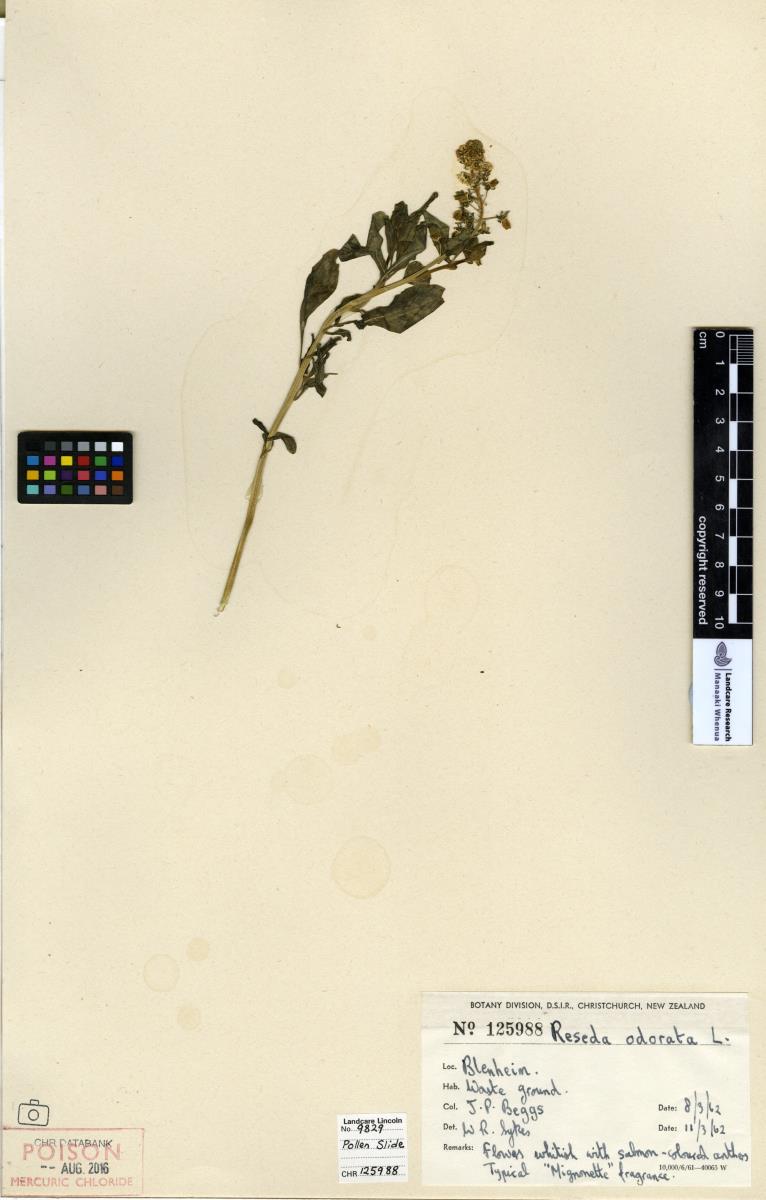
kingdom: Plantae
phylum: Tracheophyta
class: Magnoliopsida
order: Brassicales
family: Resedaceae
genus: Reseda
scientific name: Reseda odorata
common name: Garden mignonette
